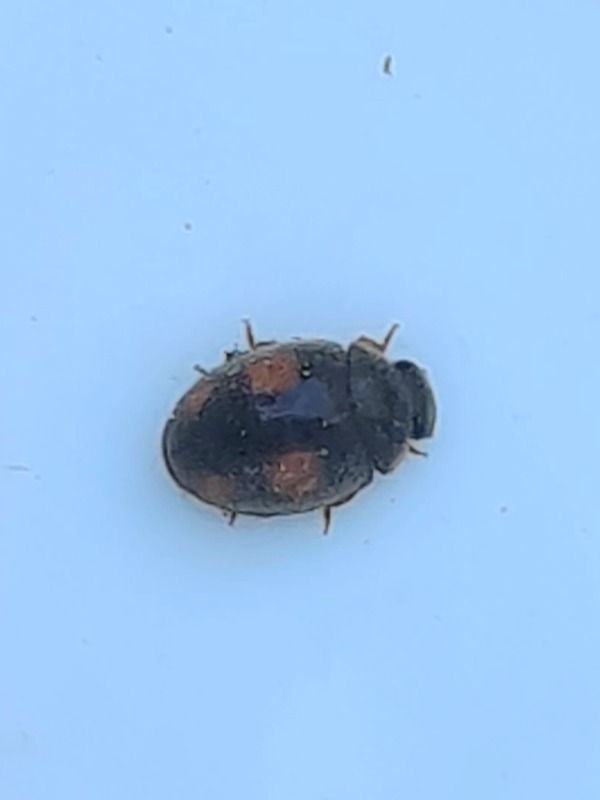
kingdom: Animalia
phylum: Arthropoda
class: Insecta
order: Coleoptera
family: Coccinellidae
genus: Platynaspis
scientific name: Platynaspis luteorubra
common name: Håret mariehøne
